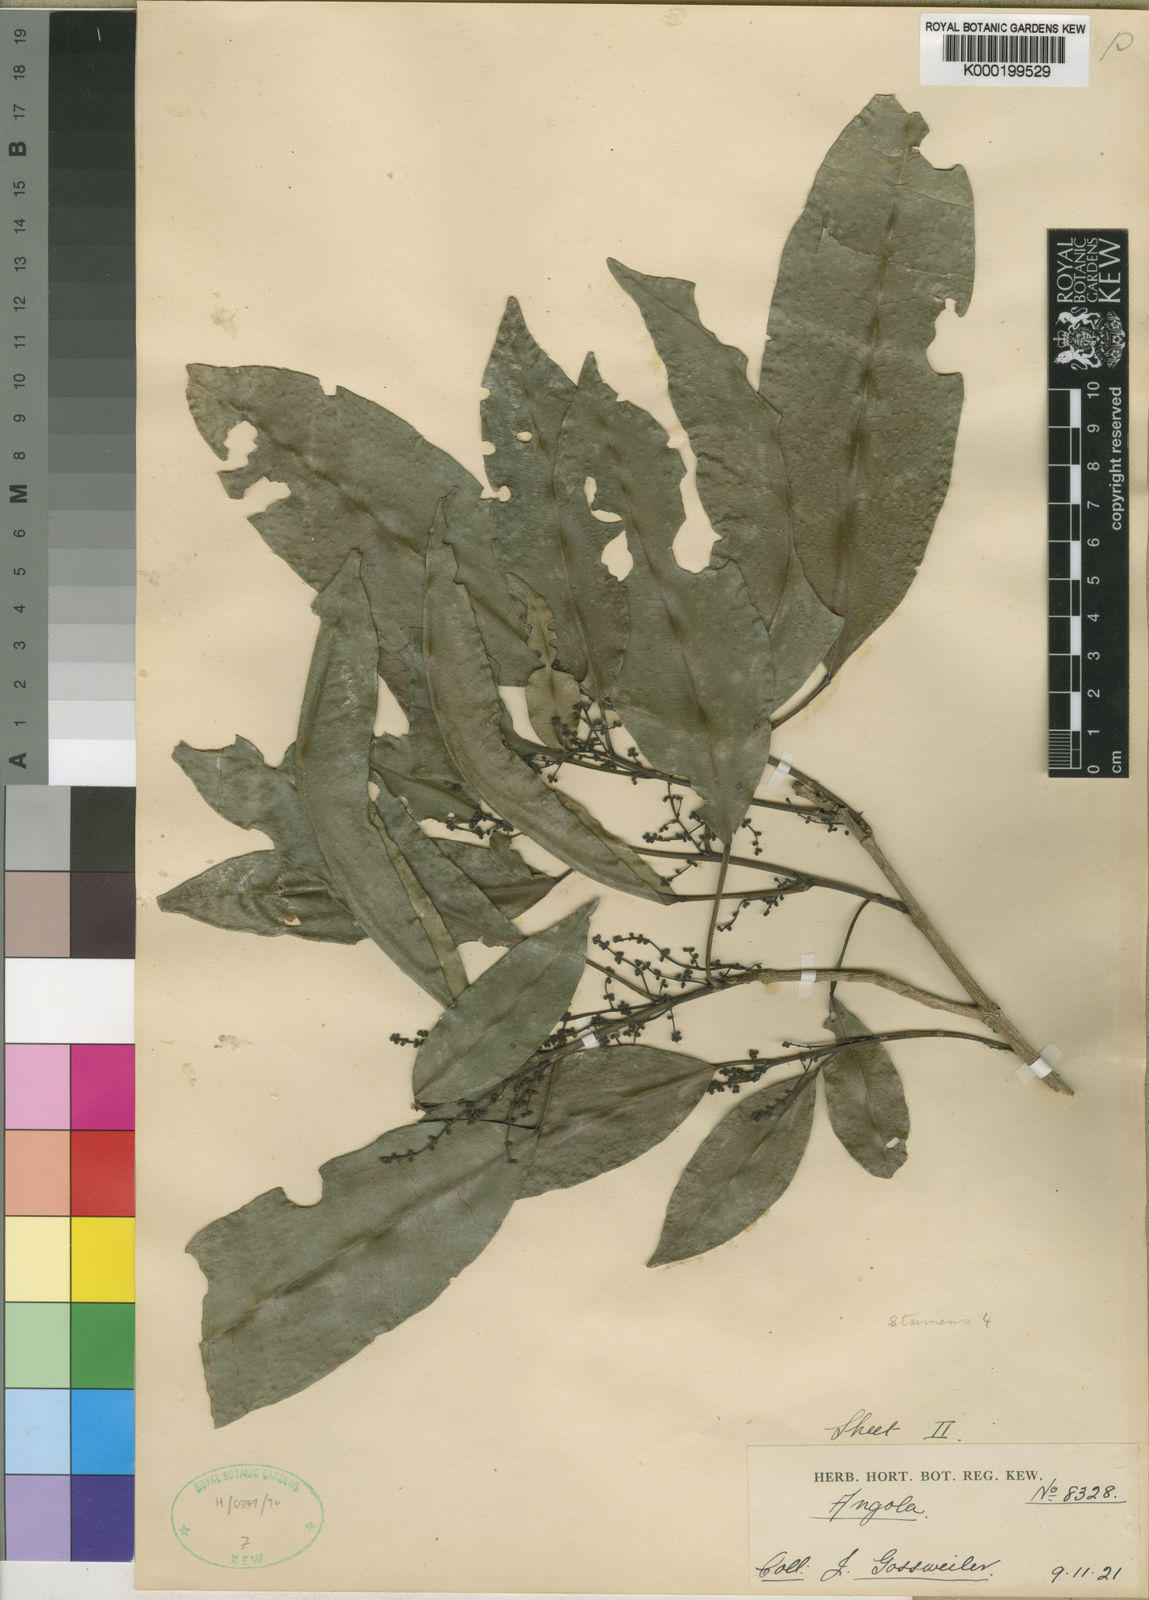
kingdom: Plantae
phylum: Tracheophyta
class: Magnoliopsida
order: Sapindales
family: Rutaceae
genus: Vepris
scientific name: Vepris gossweileri
